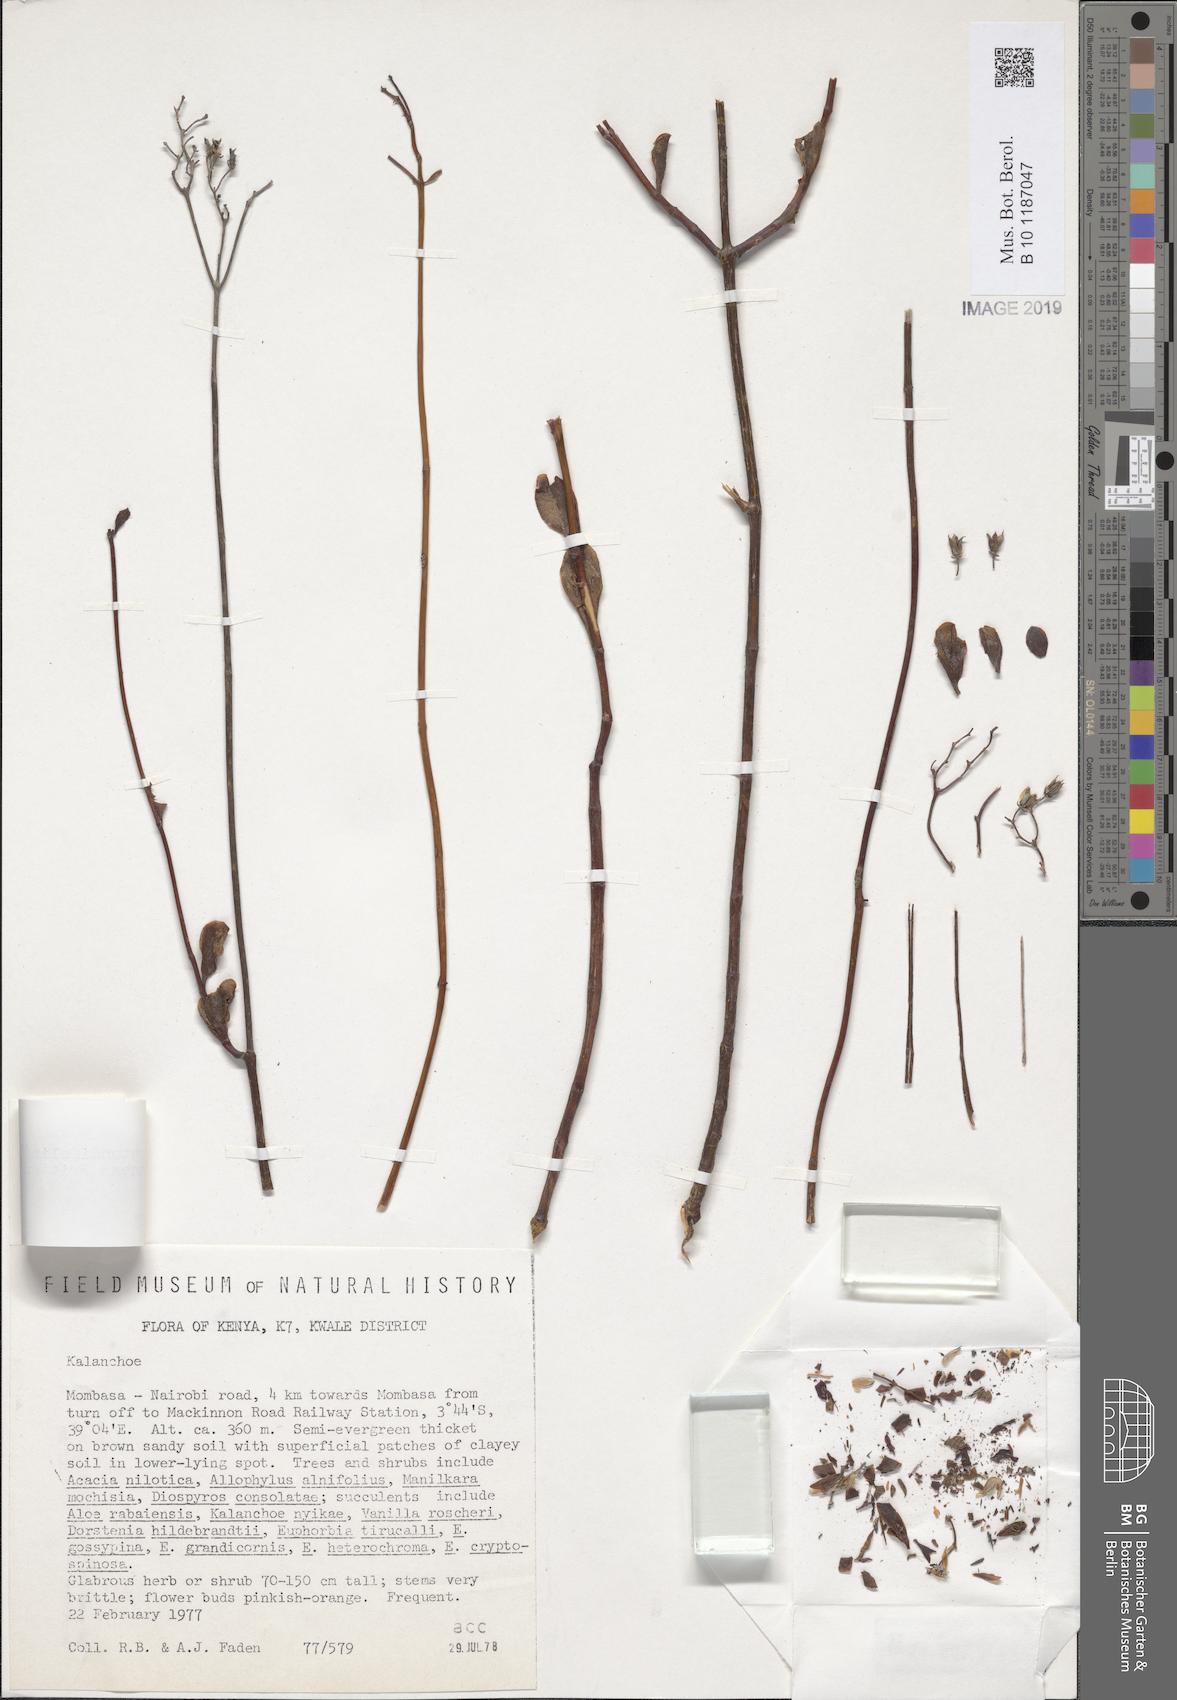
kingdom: Plantae
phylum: Tracheophyta
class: Magnoliopsida
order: Saxifragales
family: Crassulaceae
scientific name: Crassulaceae
